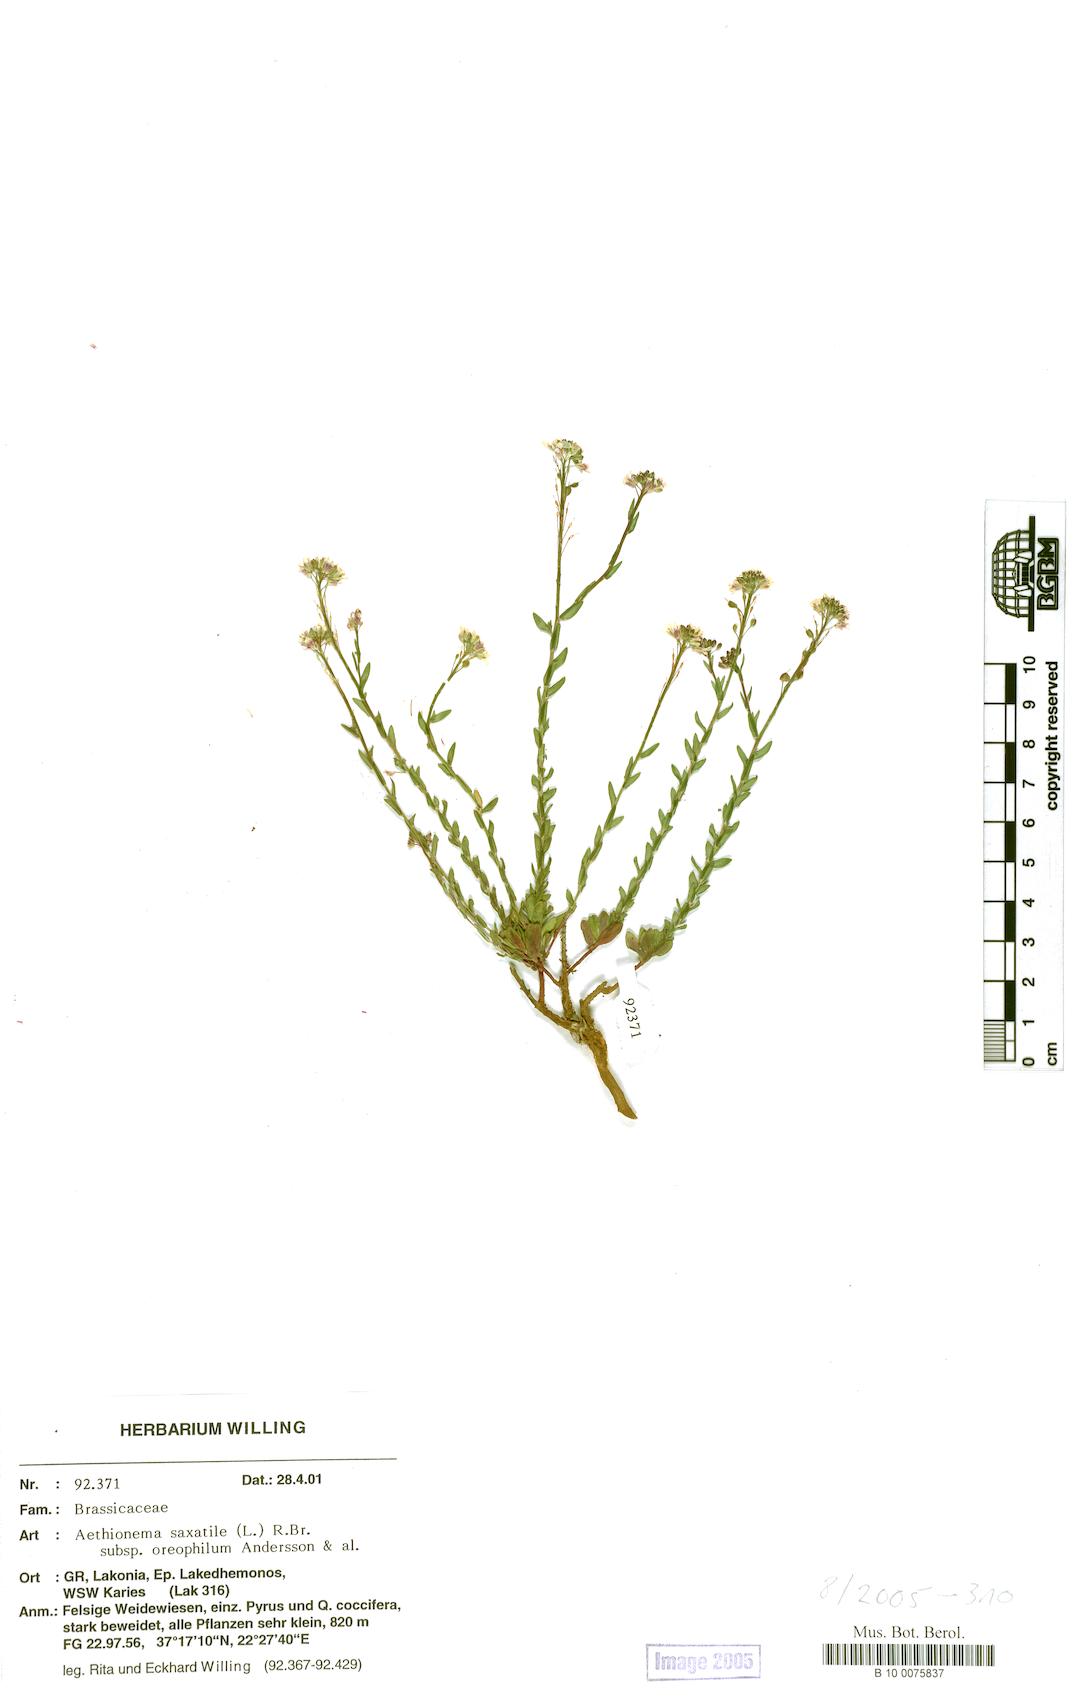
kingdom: Plantae
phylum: Tracheophyta
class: Magnoliopsida
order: Brassicales
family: Brassicaceae
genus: Aethionema
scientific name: Aethionema saxatile
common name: Burnt candytuft
